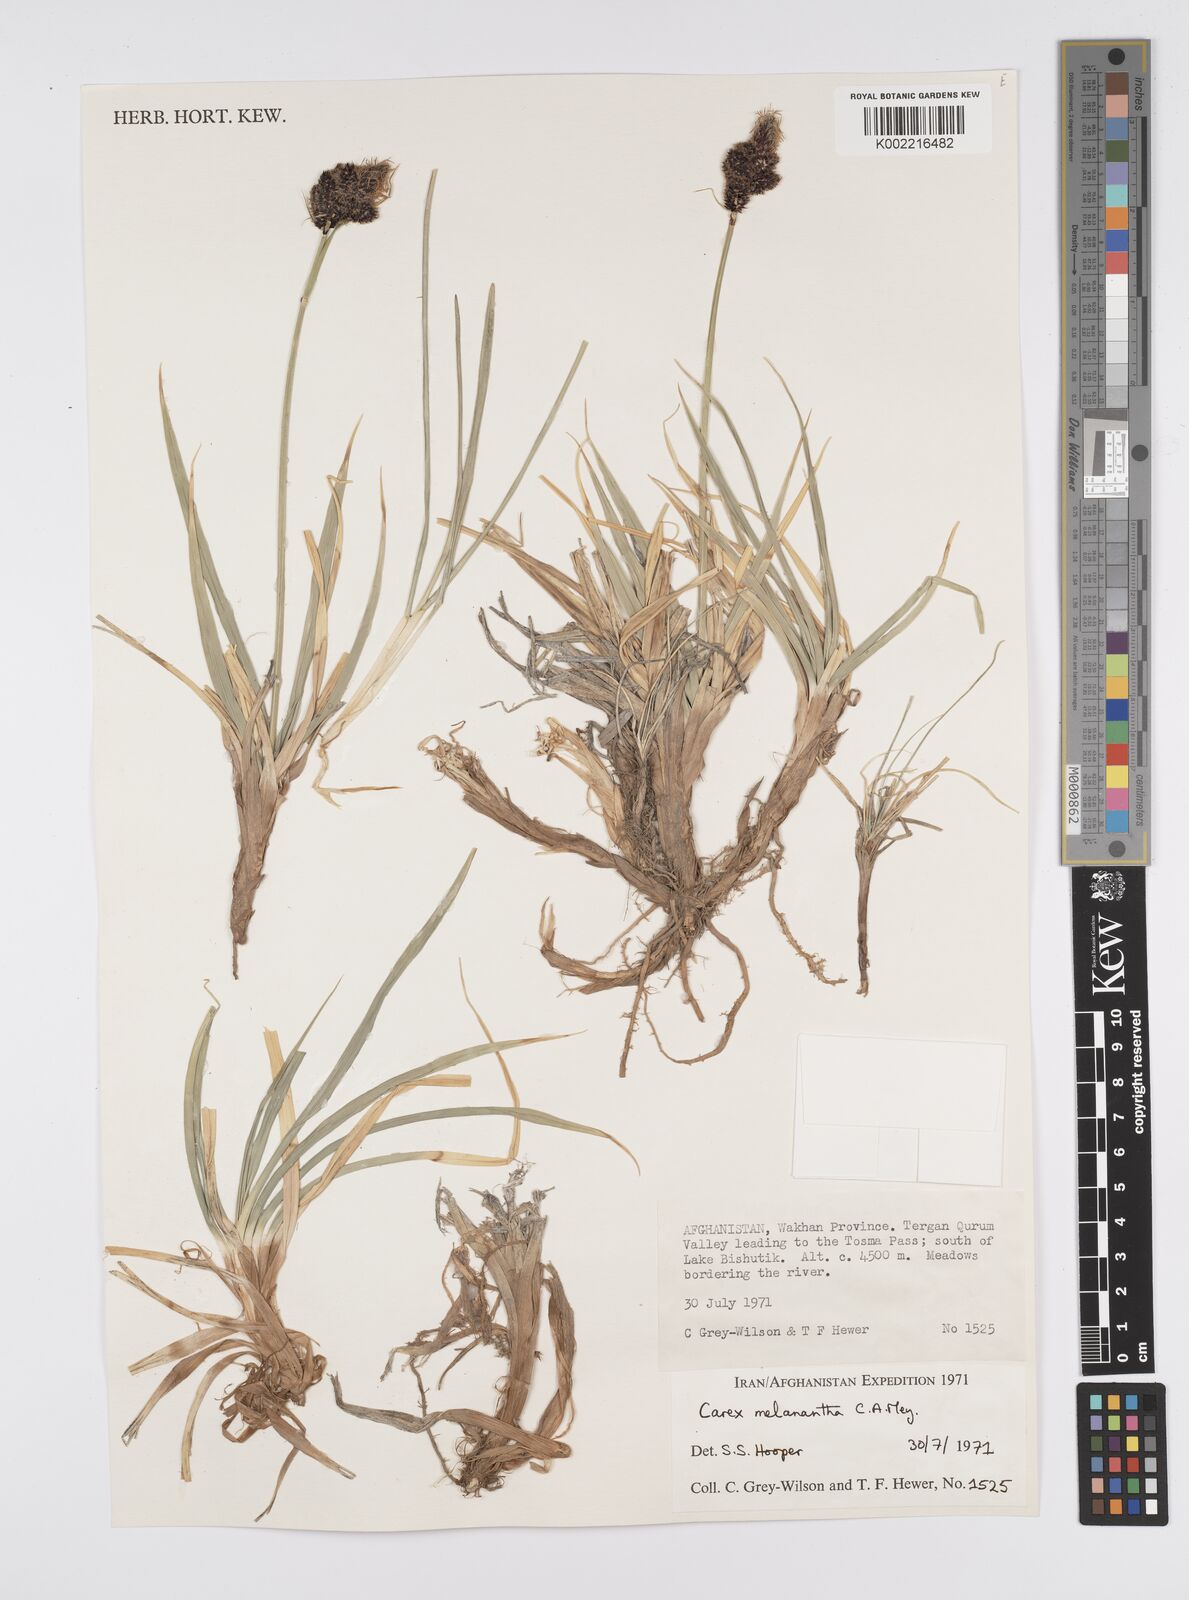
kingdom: Plantae
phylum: Tracheophyta
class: Liliopsida
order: Poales
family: Cyperaceae
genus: Carex
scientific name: Carex melanantha
